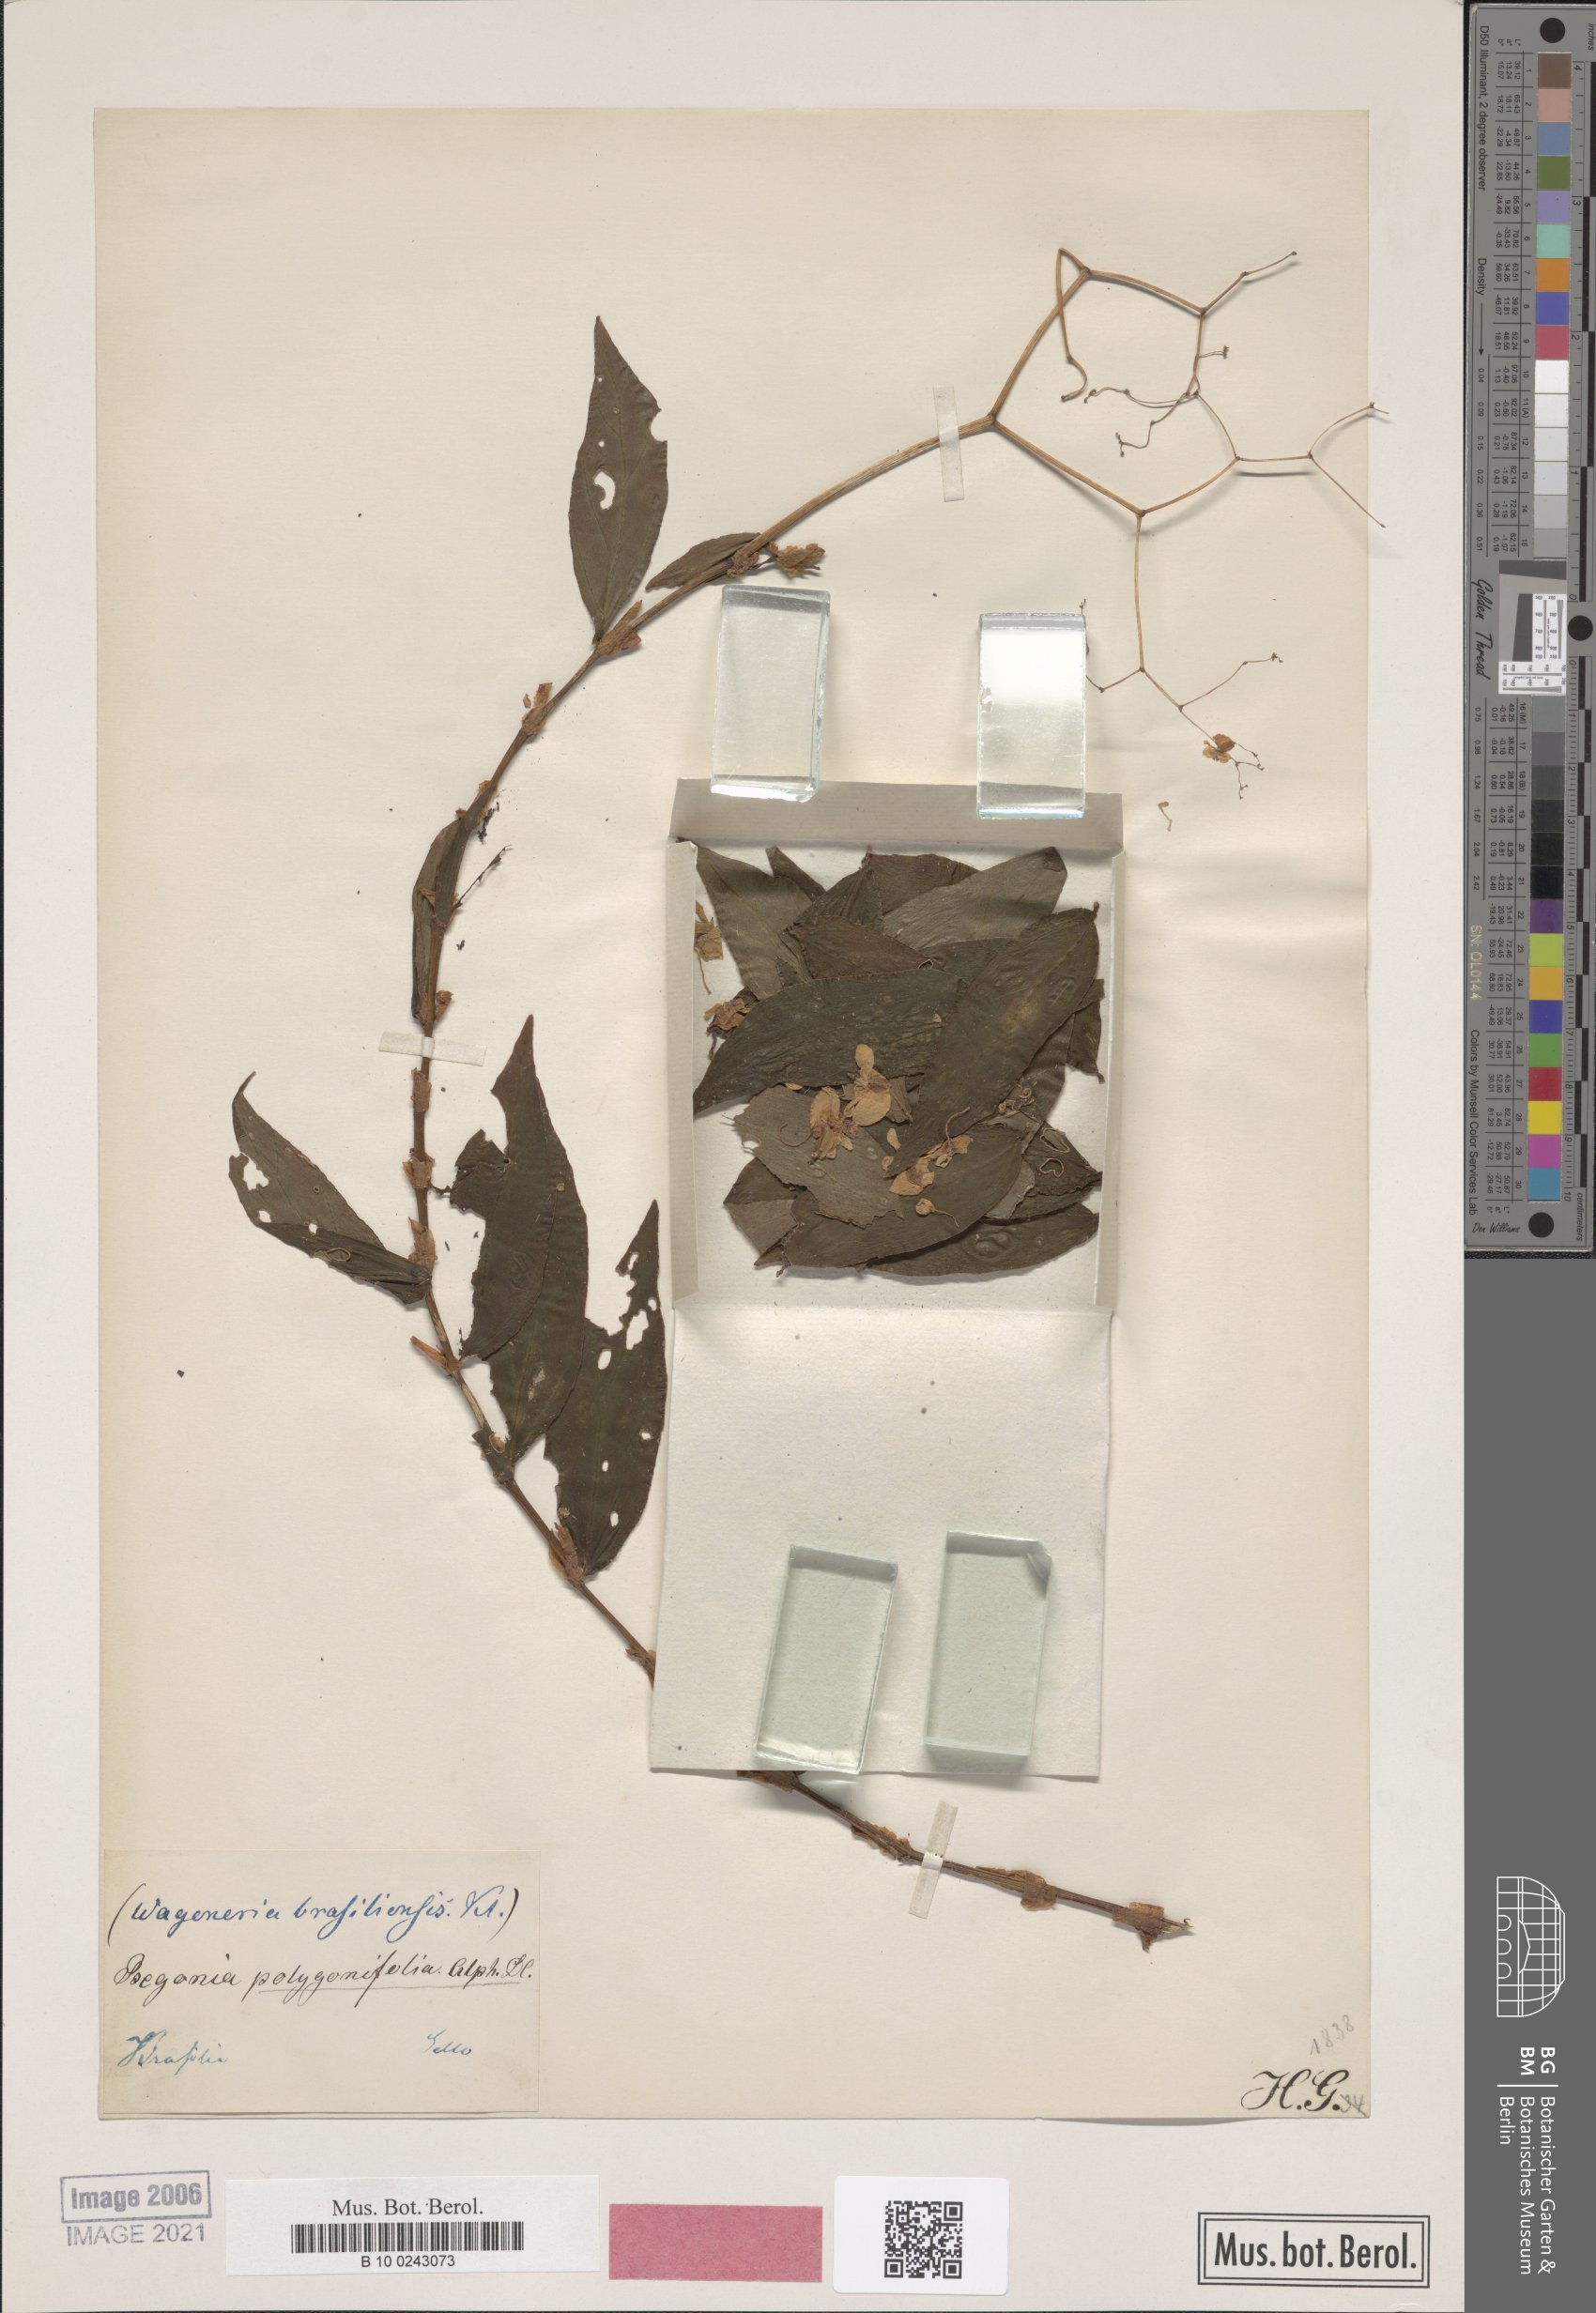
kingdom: Plantae
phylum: Tracheophyta
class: Magnoliopsida
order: Cucurbitales
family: Begoniaceae
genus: Begonia
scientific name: Begonia polygonifolia
